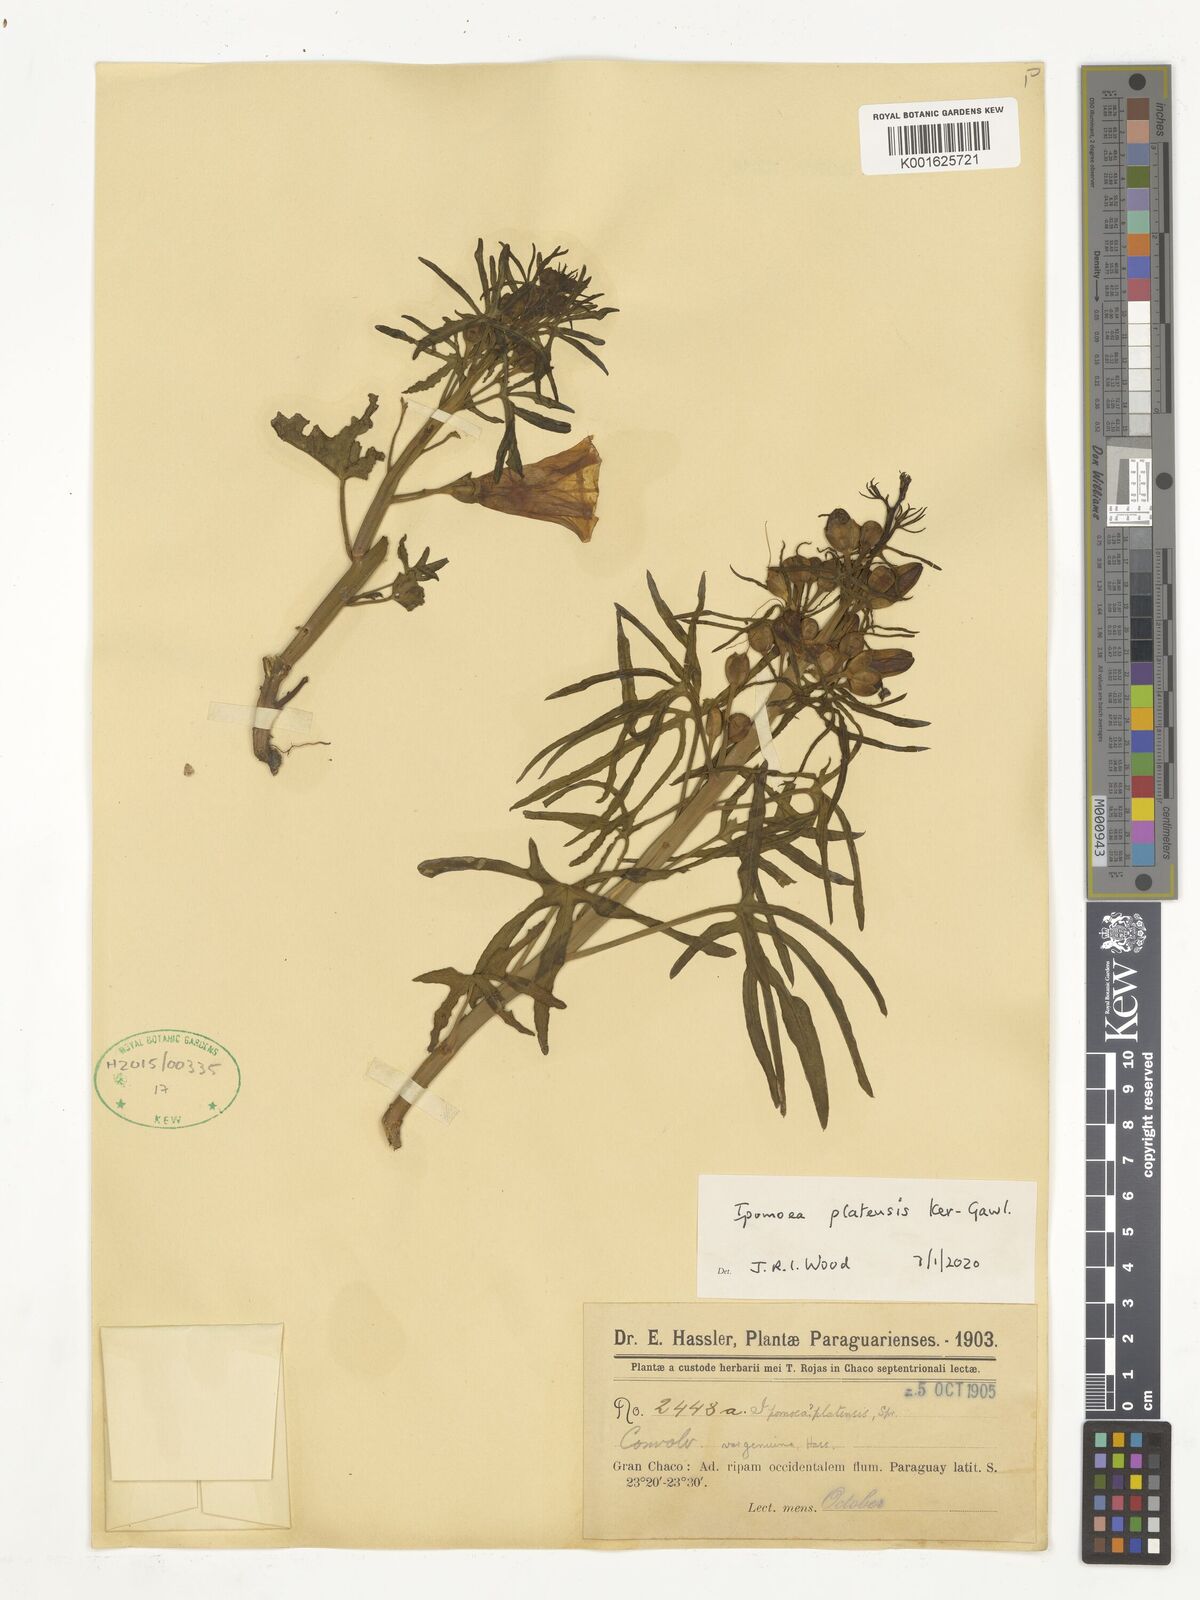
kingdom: Plantae
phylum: Tracheophyta
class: Magnoliopsida
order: Solanales
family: Convolvulaceae
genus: Ipomoea
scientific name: Ipomoea platensis
